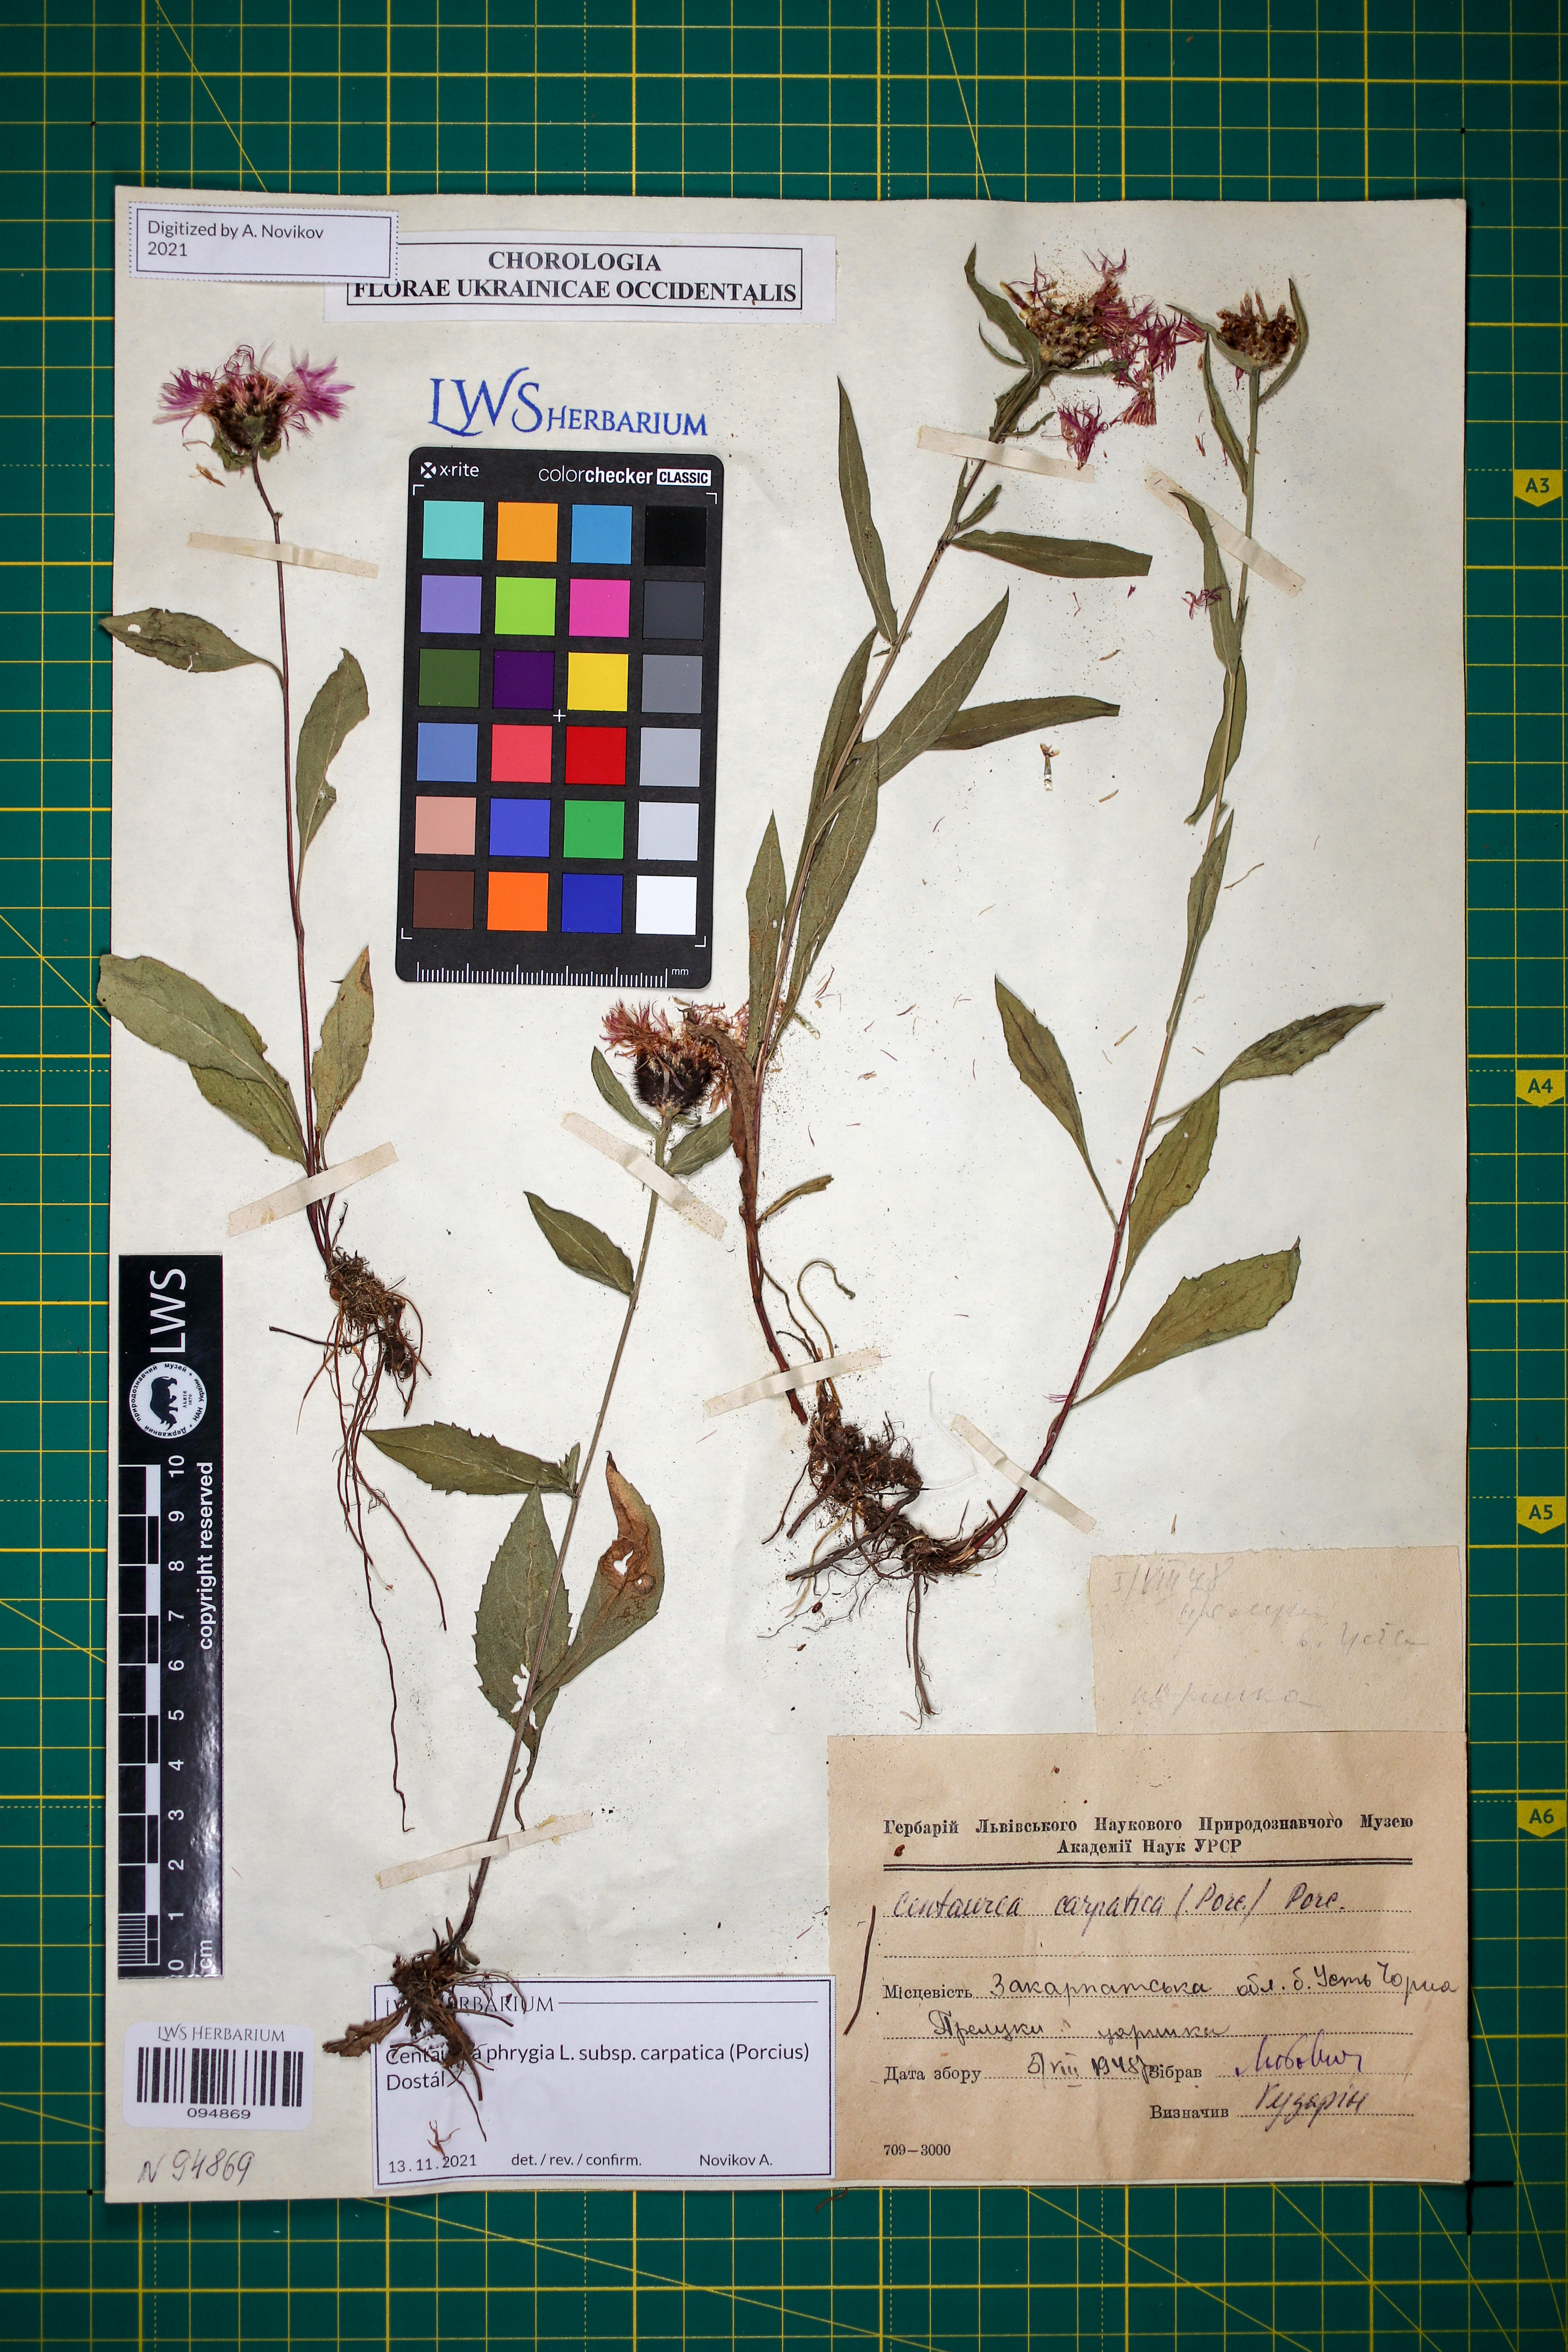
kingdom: Plantae
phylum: Tracheophyta
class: Magnoliopsida
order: Asterales
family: Asteraceae
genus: Centaurea
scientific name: Centaurea phrygia
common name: Wig knapweed
